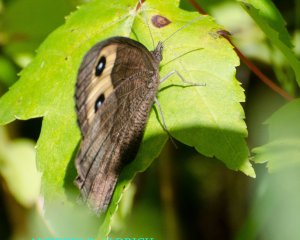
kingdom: Animalia
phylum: Arthropoda
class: Insecta
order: Lepidoptera
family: Nymphalidae
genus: Cercyonis
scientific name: Cercyonis pegala
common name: Common Wood-Nymph
